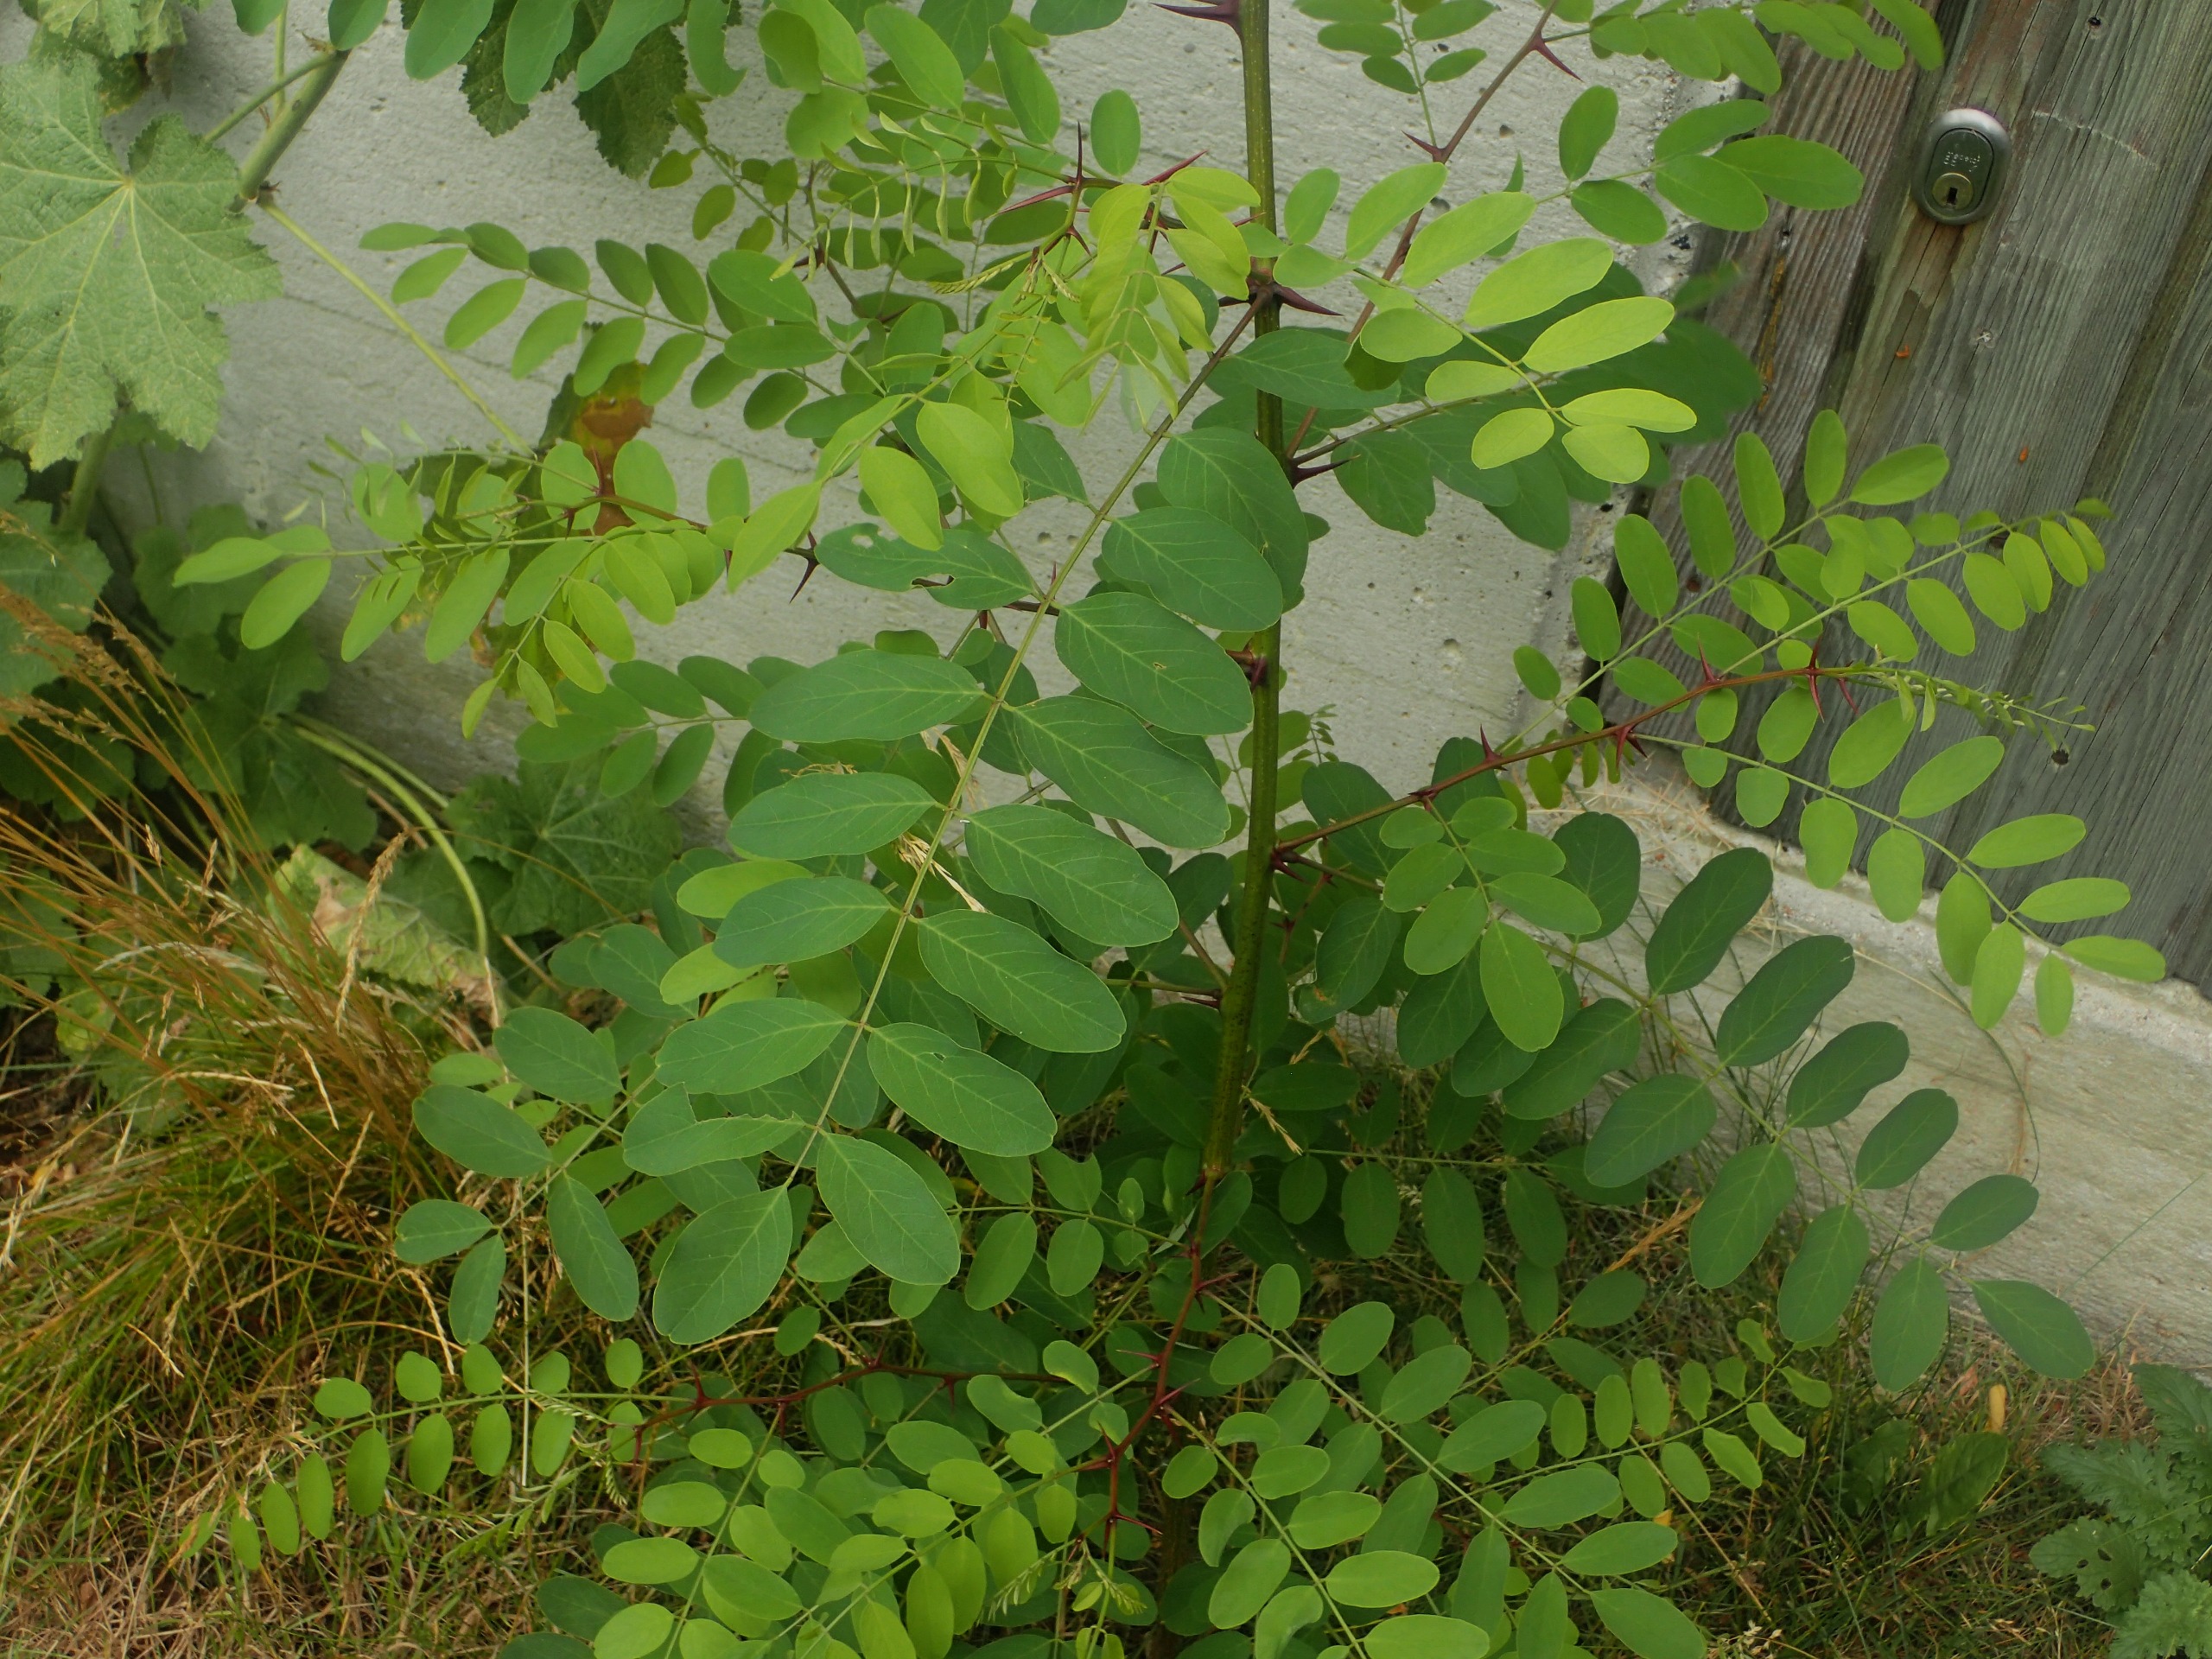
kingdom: Plantae
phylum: Tracheophyta
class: Magnoliopsida
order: Fabales
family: Fabaceae
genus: Robinia
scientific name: Robinia pseudoacacia
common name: Robinie
